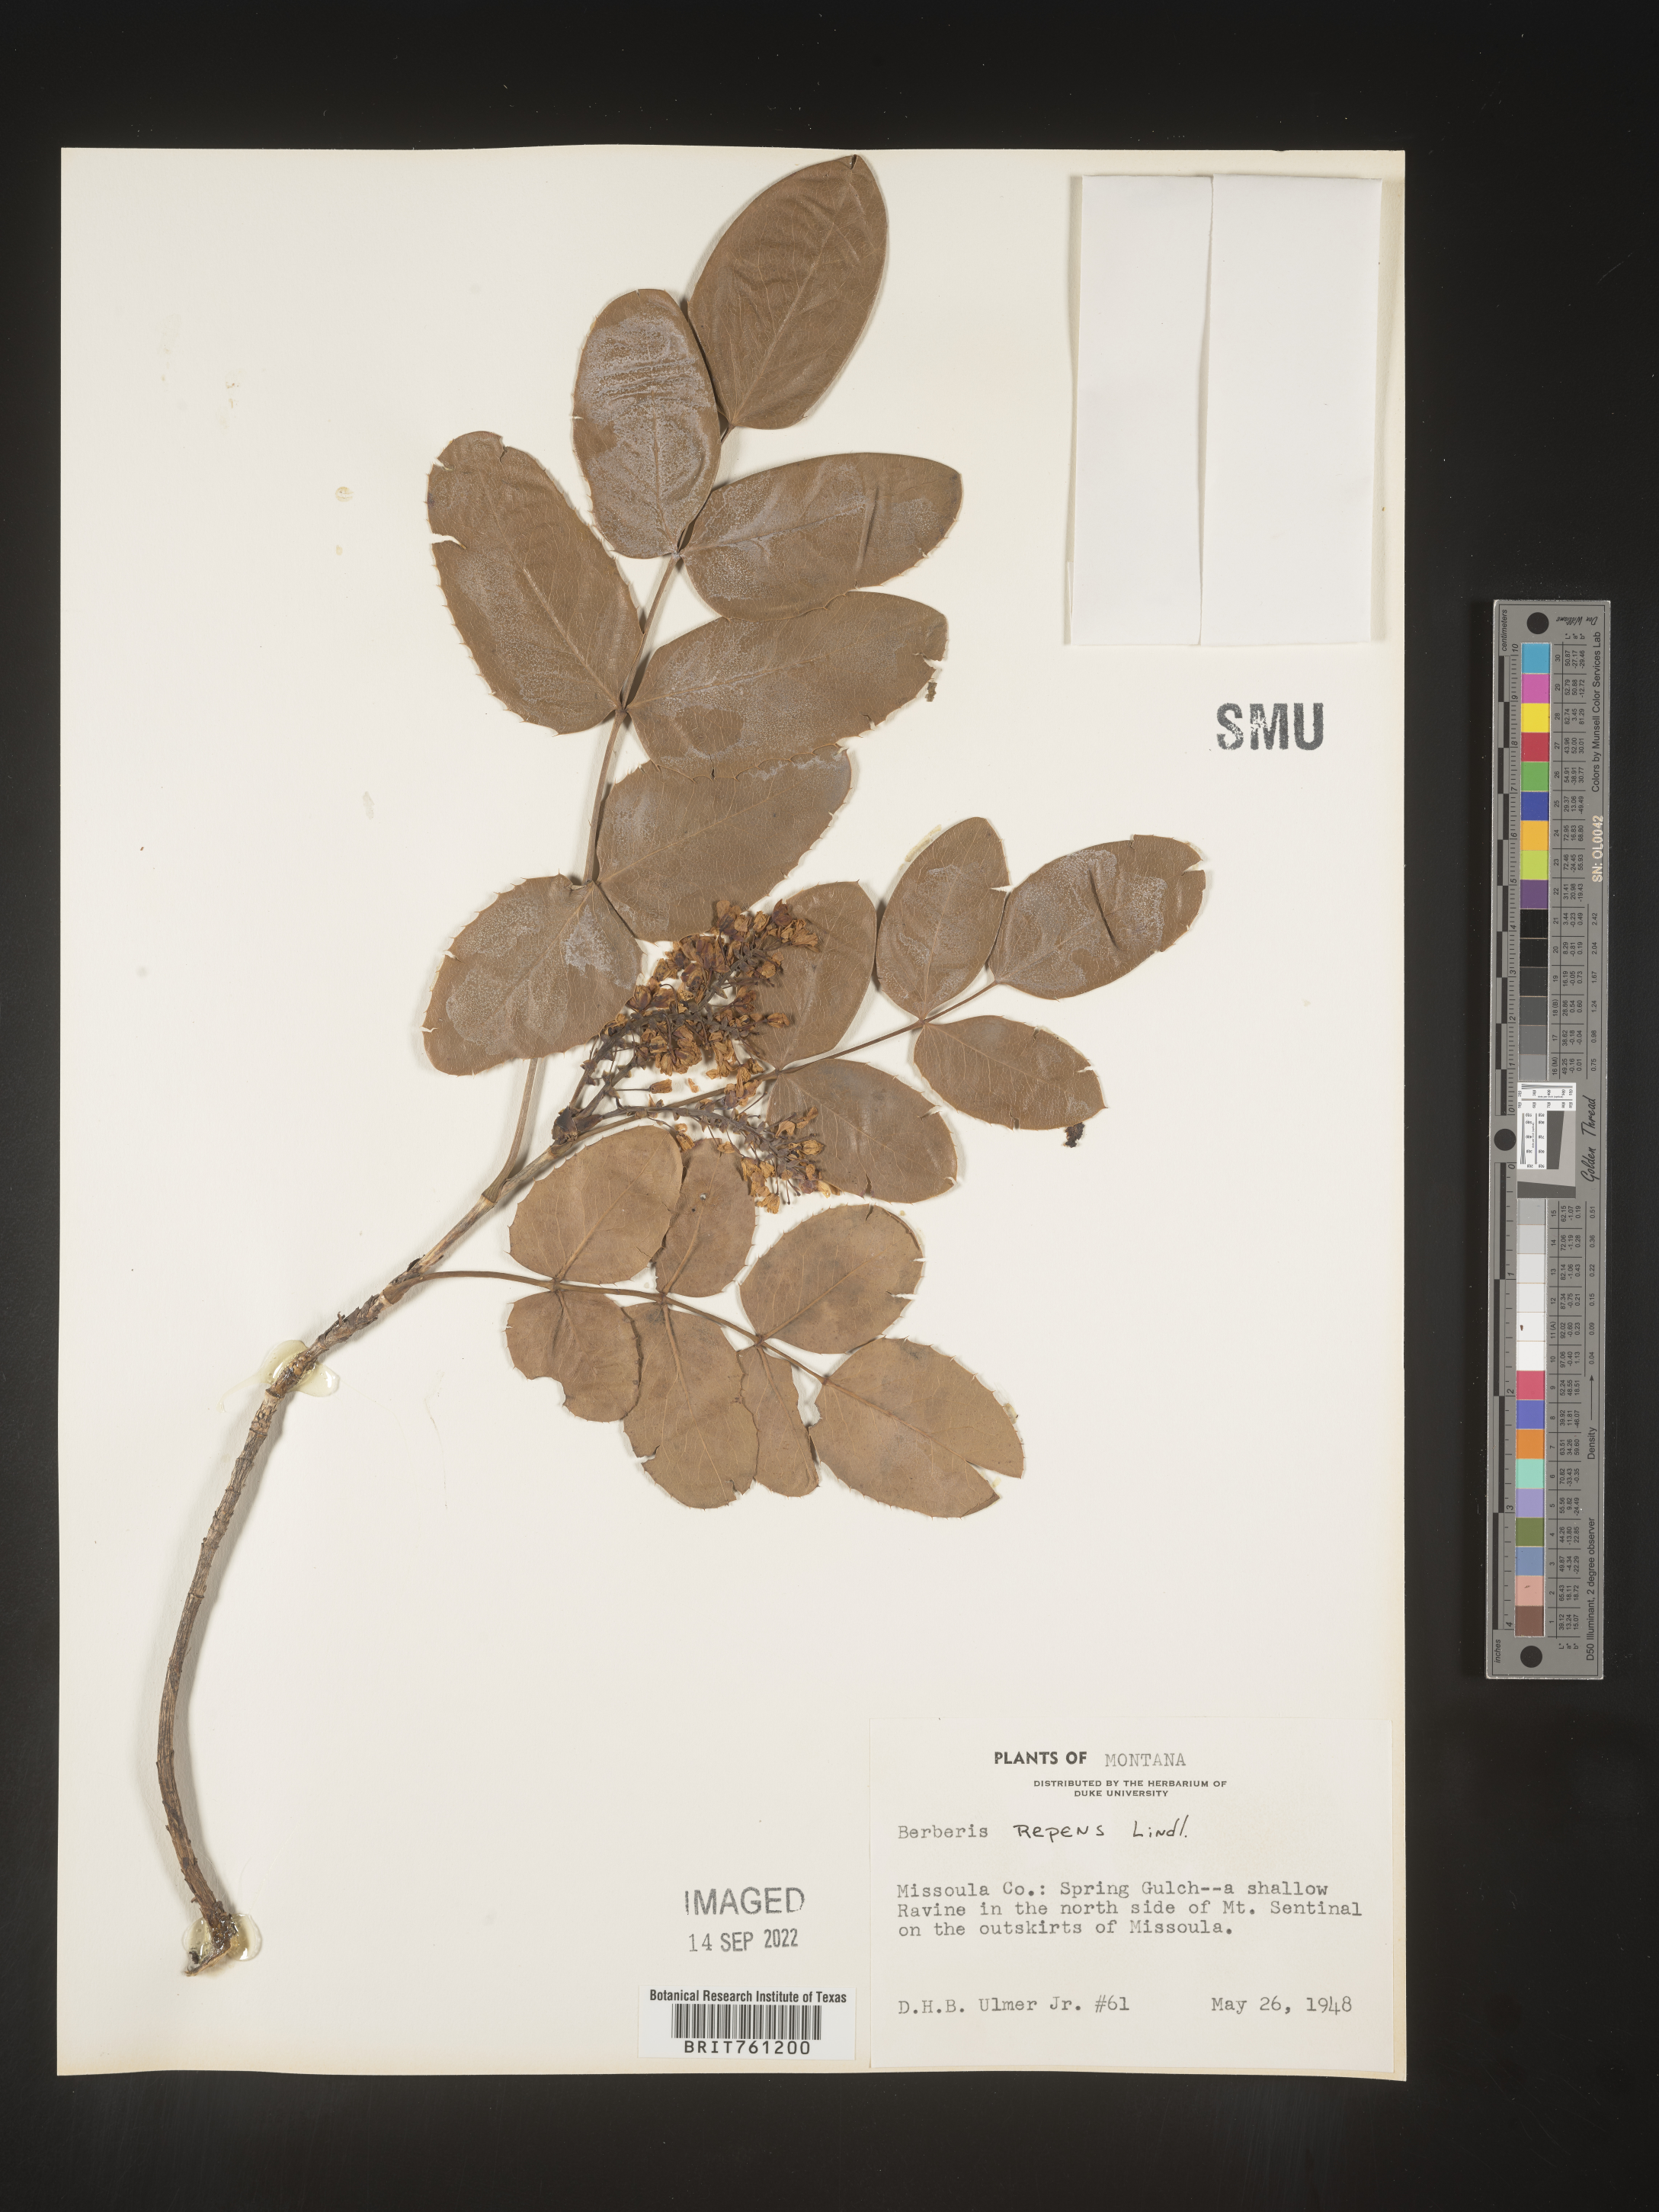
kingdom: Plantae
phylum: Tracheophyta
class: Magnoliopsida
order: Ranunculales
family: Berberidaceae
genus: Mahonia
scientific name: Mahonia repens
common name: Creeping oregon-grape
